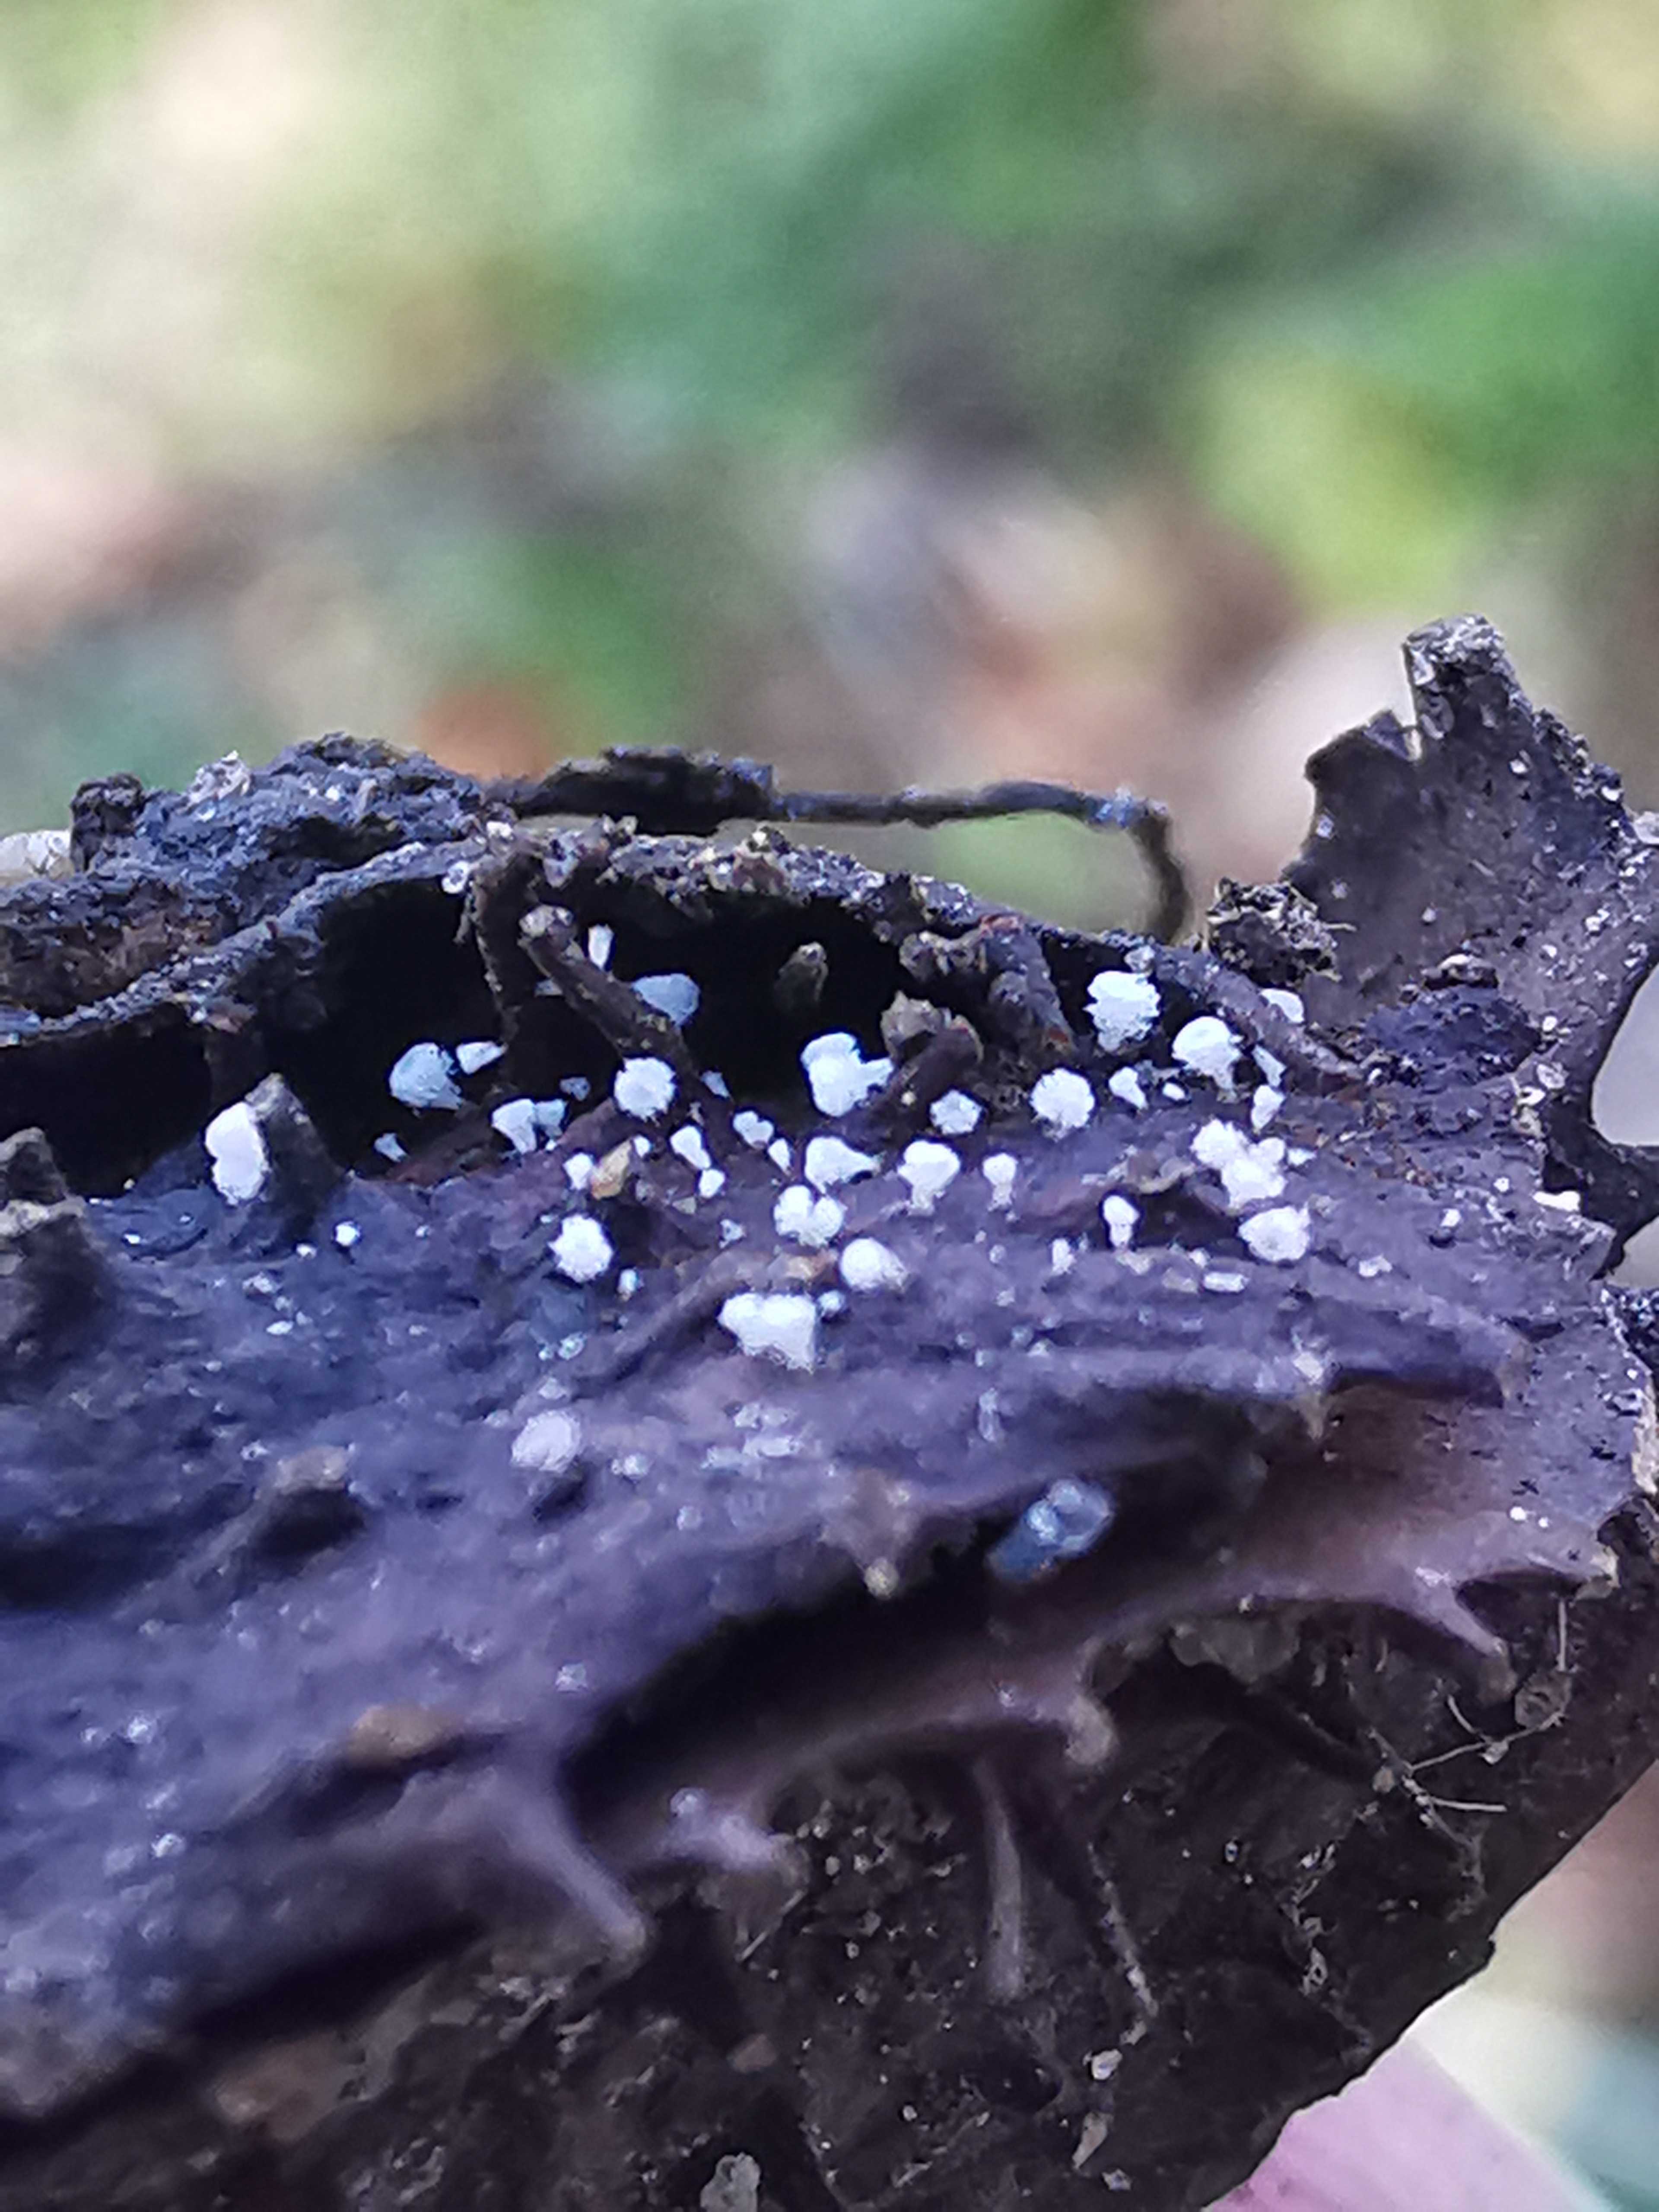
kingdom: Fungi
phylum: Ascomycota
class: Leotiomycetes
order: Helotiales
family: Lachnaceae
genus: Lachnum
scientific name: Lachnum virgineum
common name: jomfru-frynseskive
